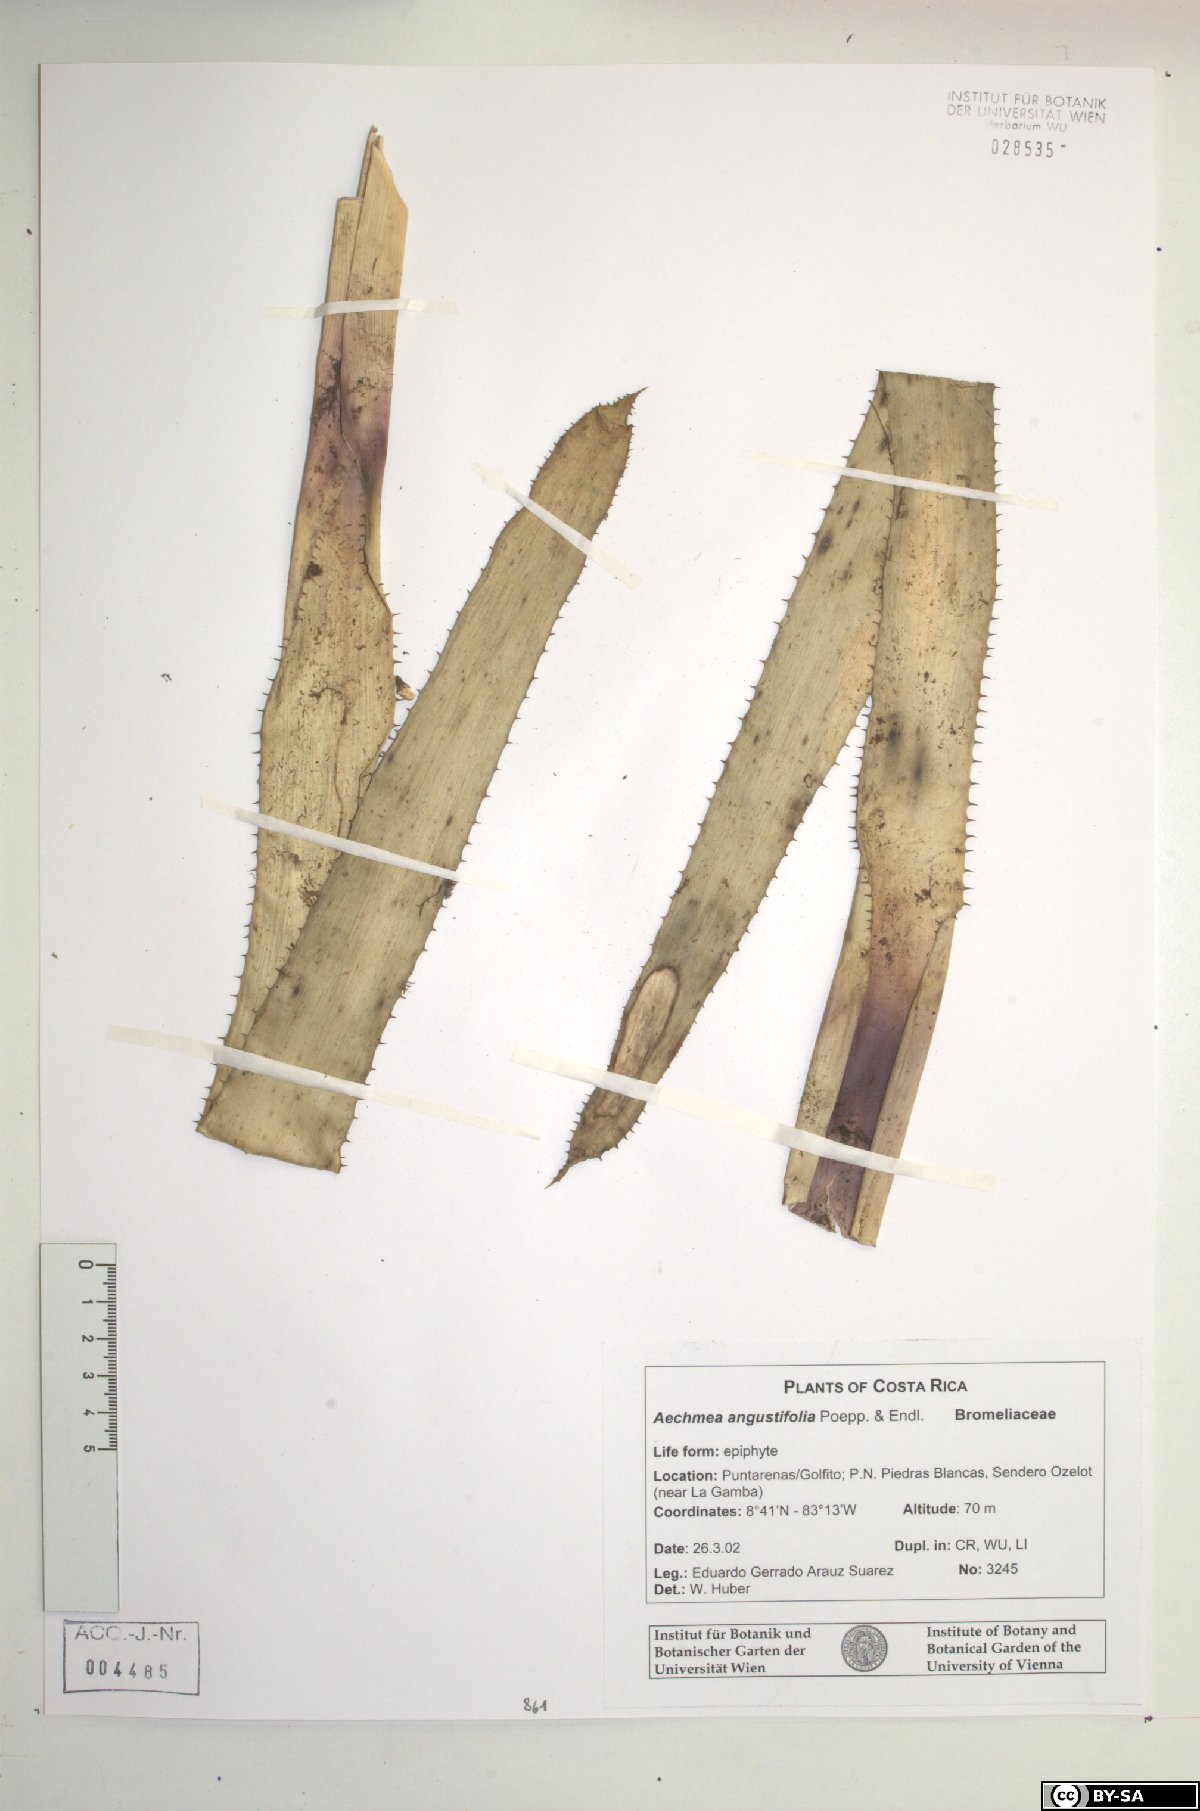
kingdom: Plantae
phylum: Tracheophyta
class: Liliopsida
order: Poales
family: Bromeliaceae
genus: Aechmea
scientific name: Aechmea angustifolia
